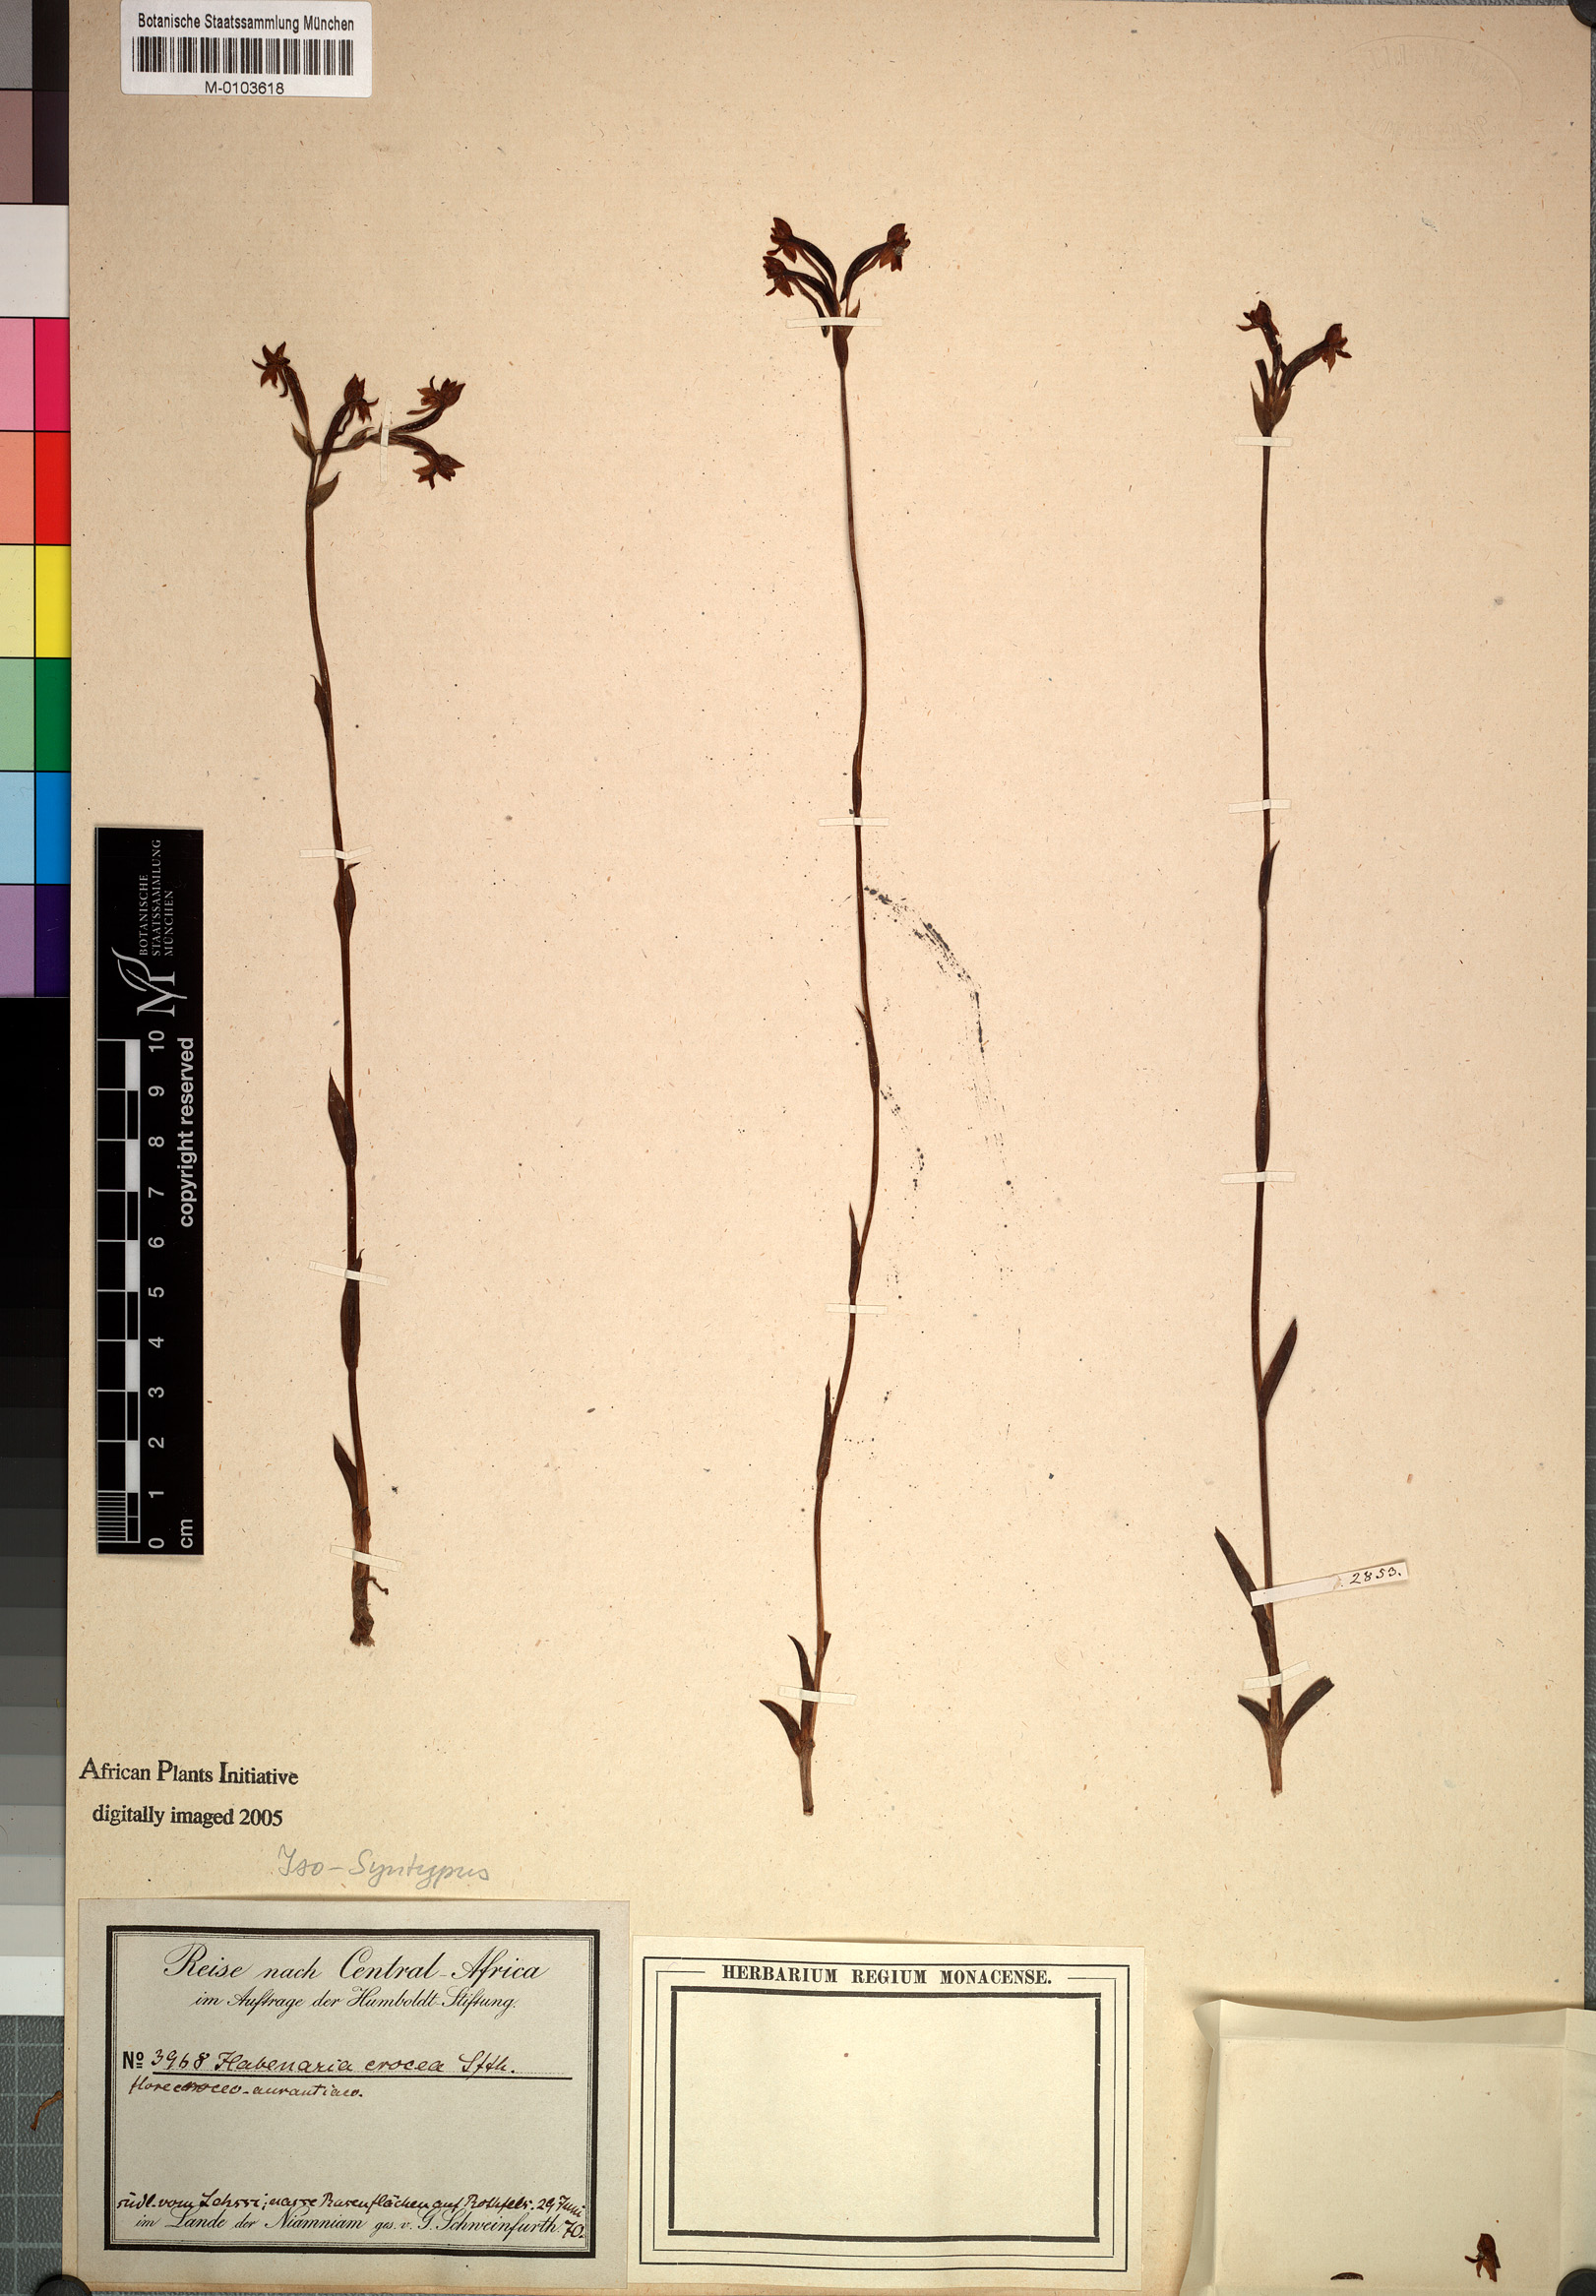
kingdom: Plantae
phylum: Tracheophyta
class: Liliopsida
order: Asparagales
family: Orchidaceae
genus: Platycoryne
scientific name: Platycoryne crocea
